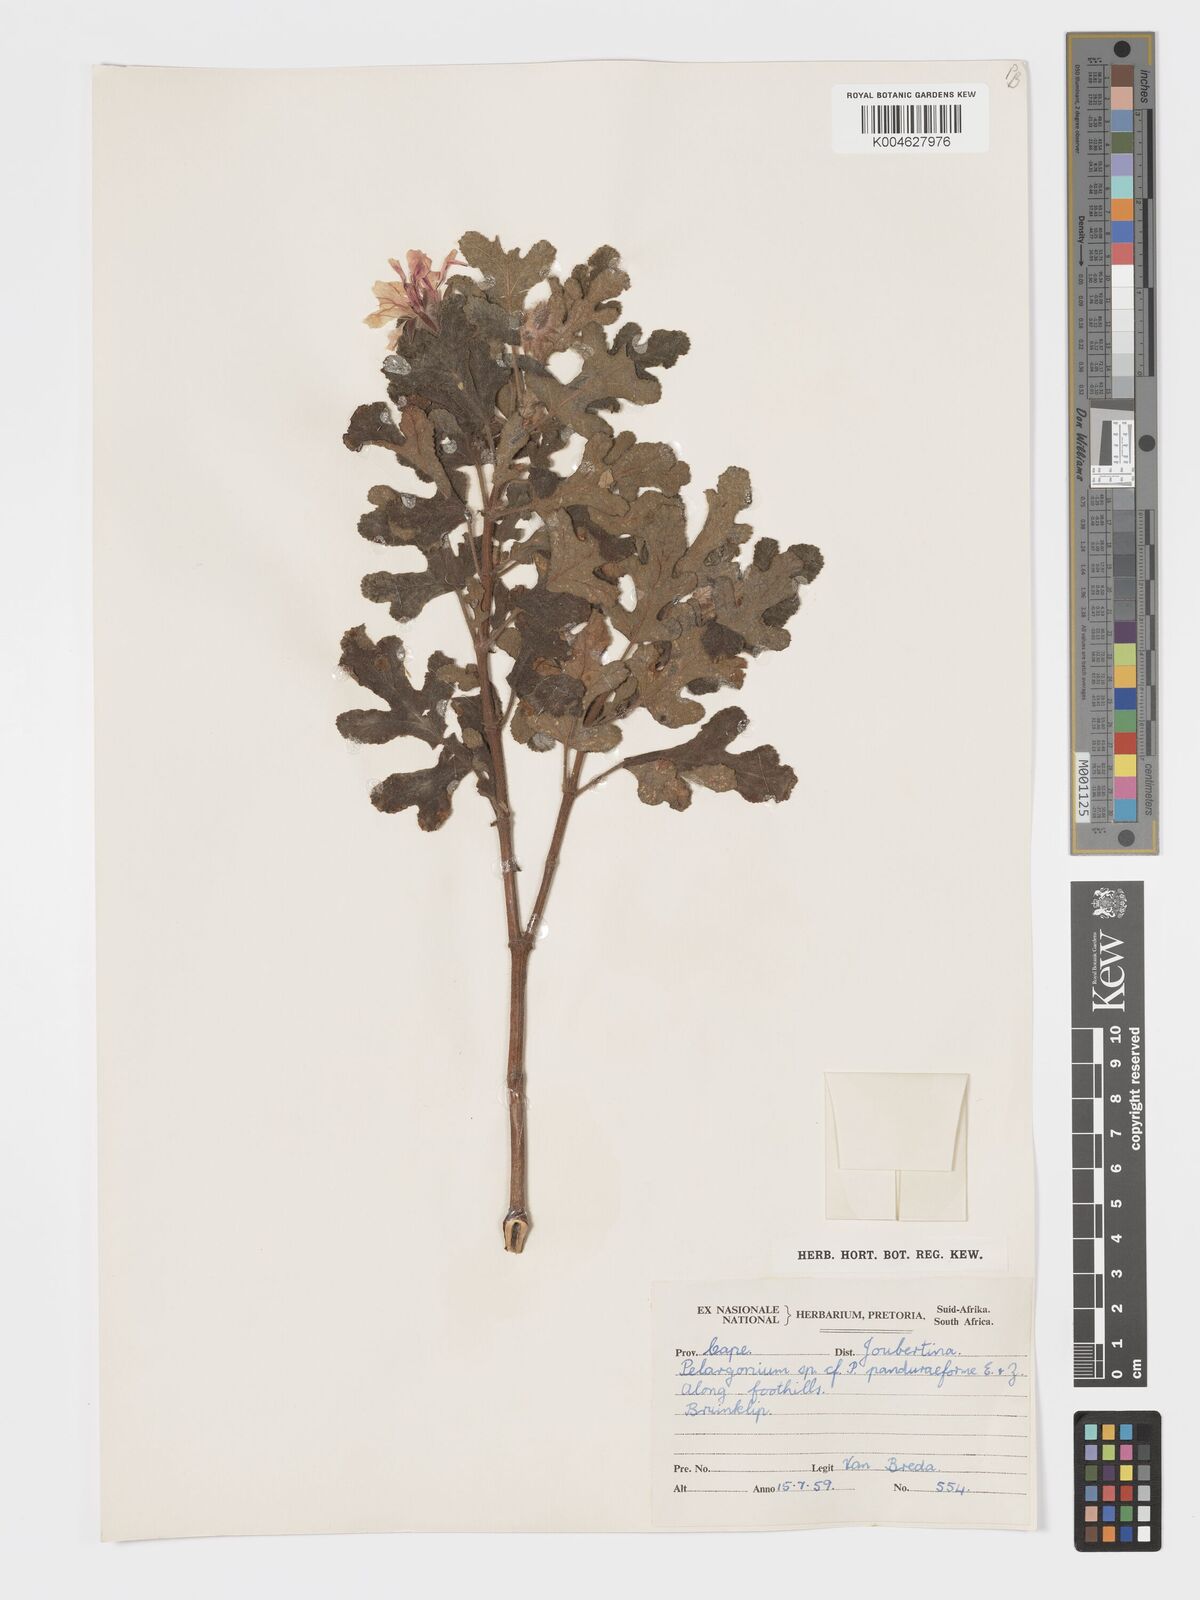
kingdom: Plantae
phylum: Tracheophyta
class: Magnoliopsida
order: Geraniales
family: Geraniaceae
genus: Pelargonium
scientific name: Pelargonium panduriforme
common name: Oakleaf garden geranium
